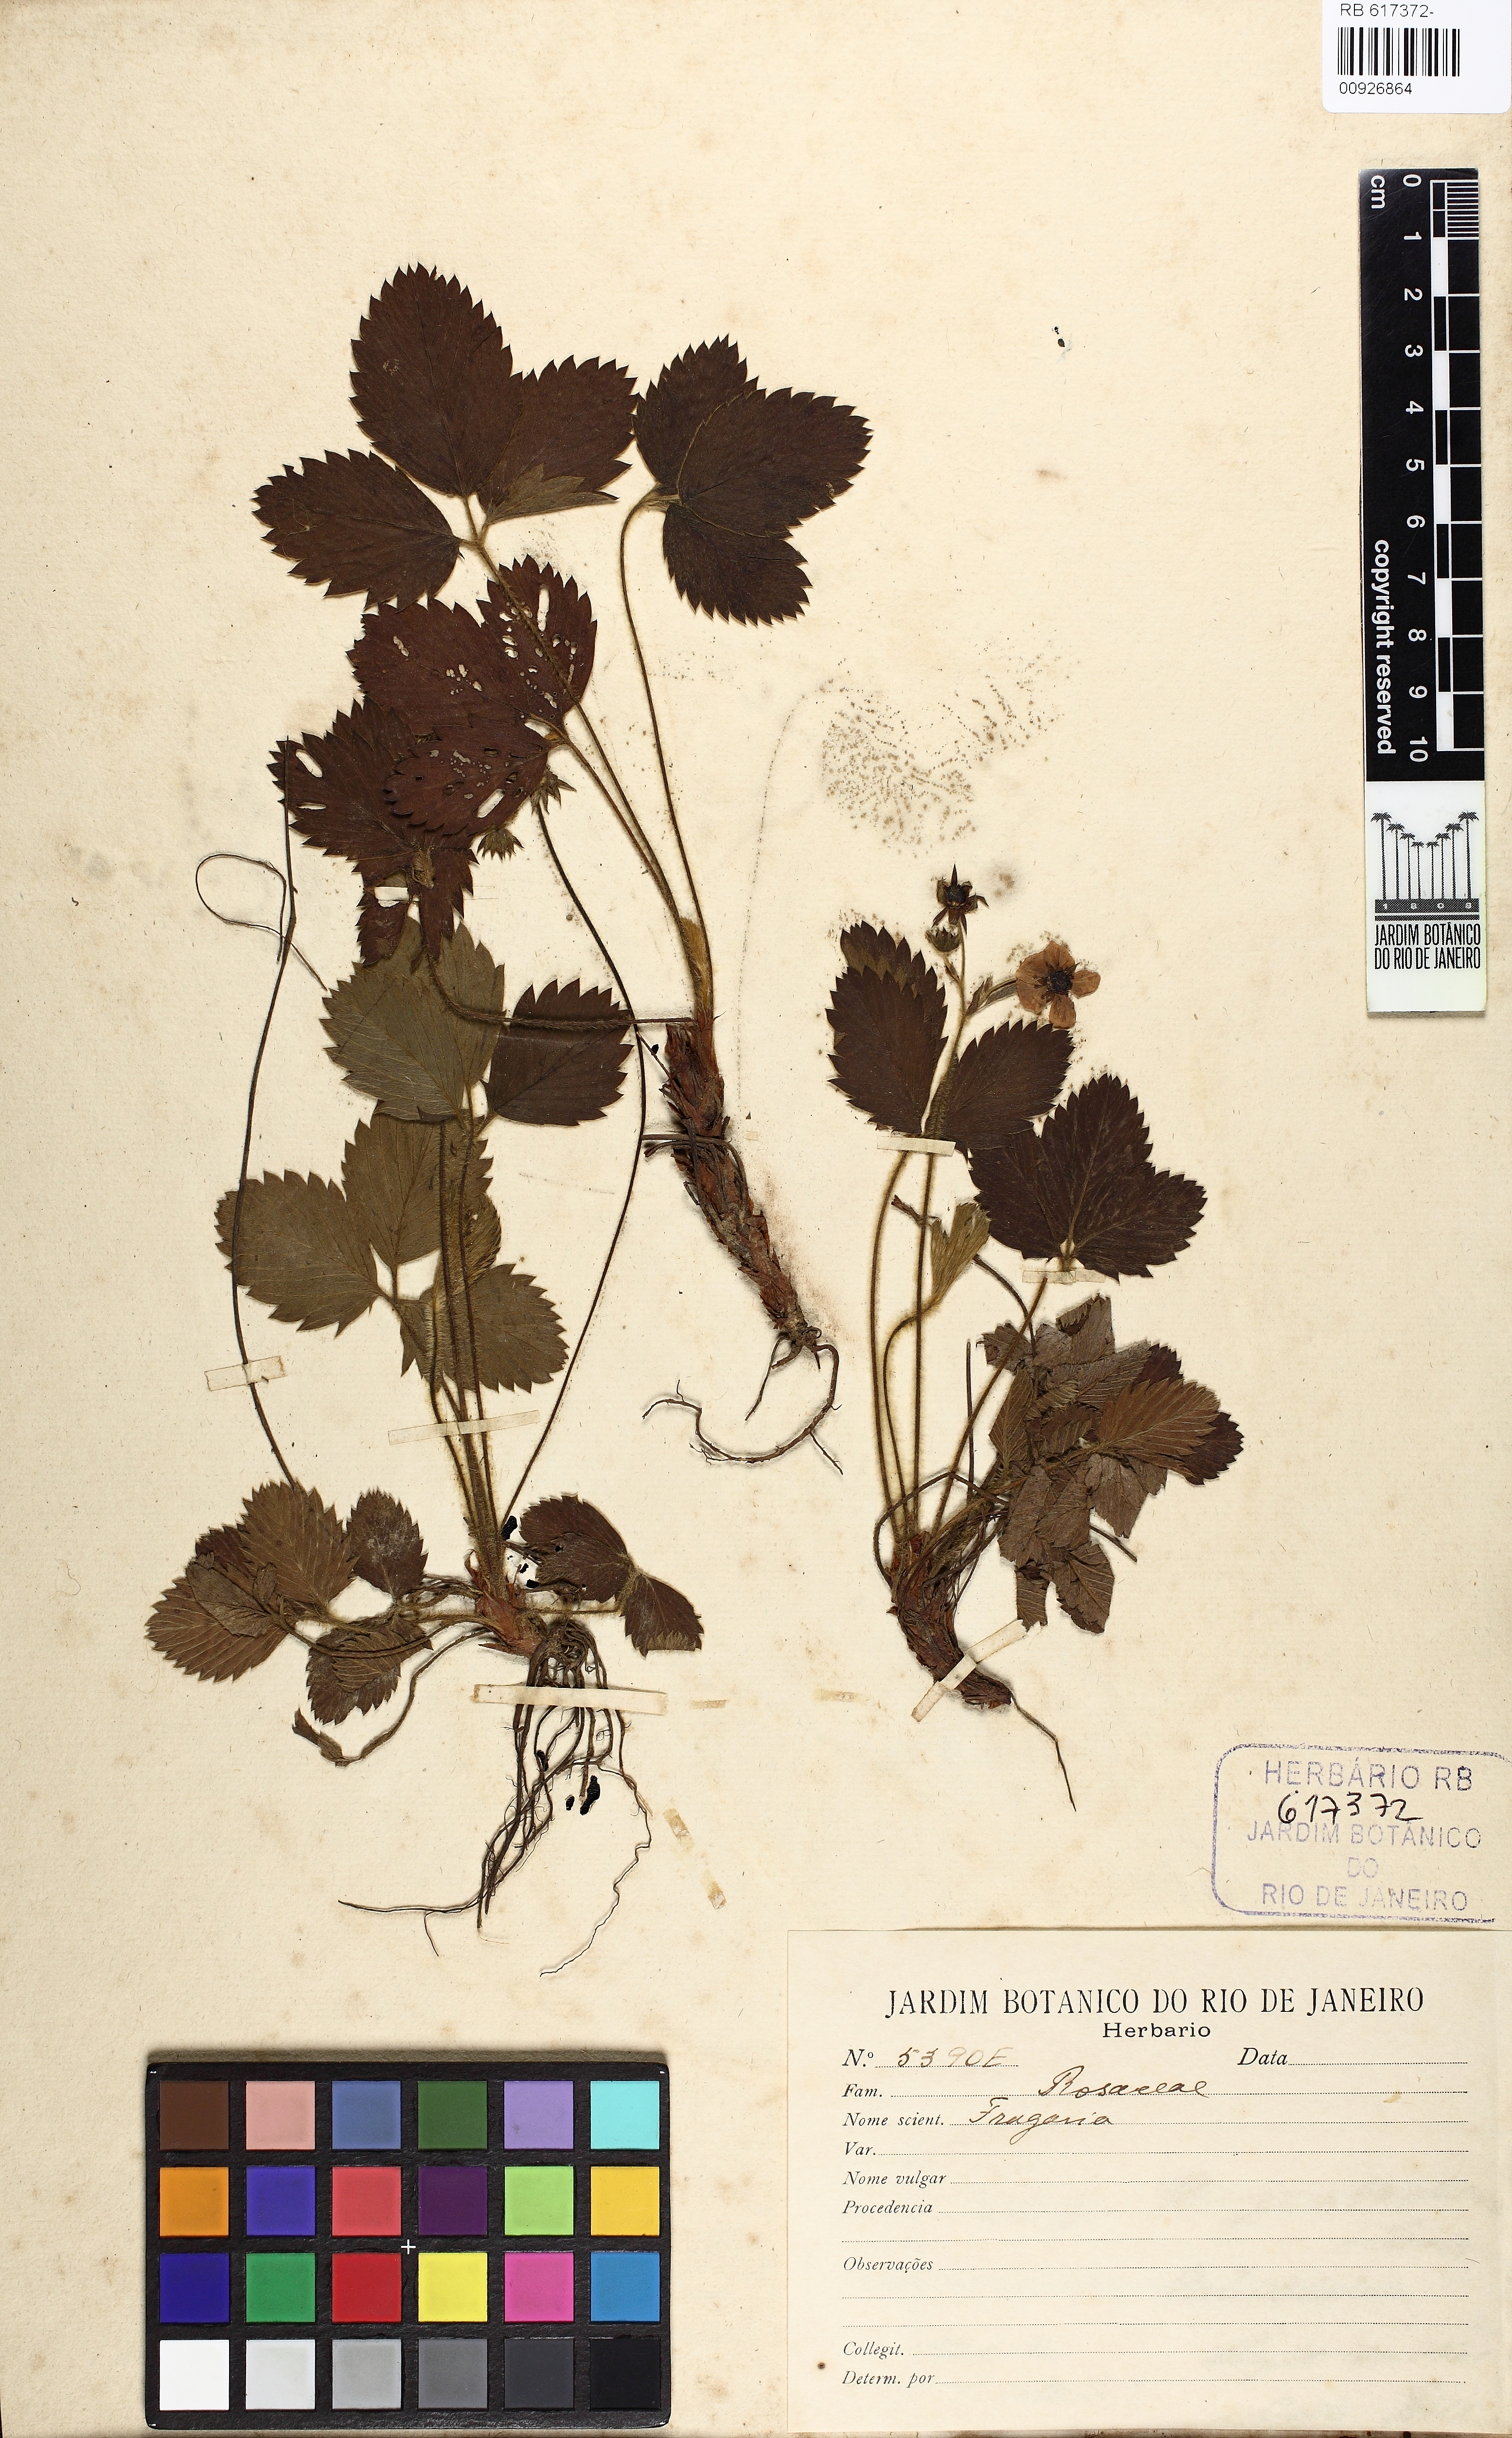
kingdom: Plantae
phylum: Tracheophyta
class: Magnoliopsida
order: Rosales
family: Rosaceae
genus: Fragaria
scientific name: Fragaria bifera
